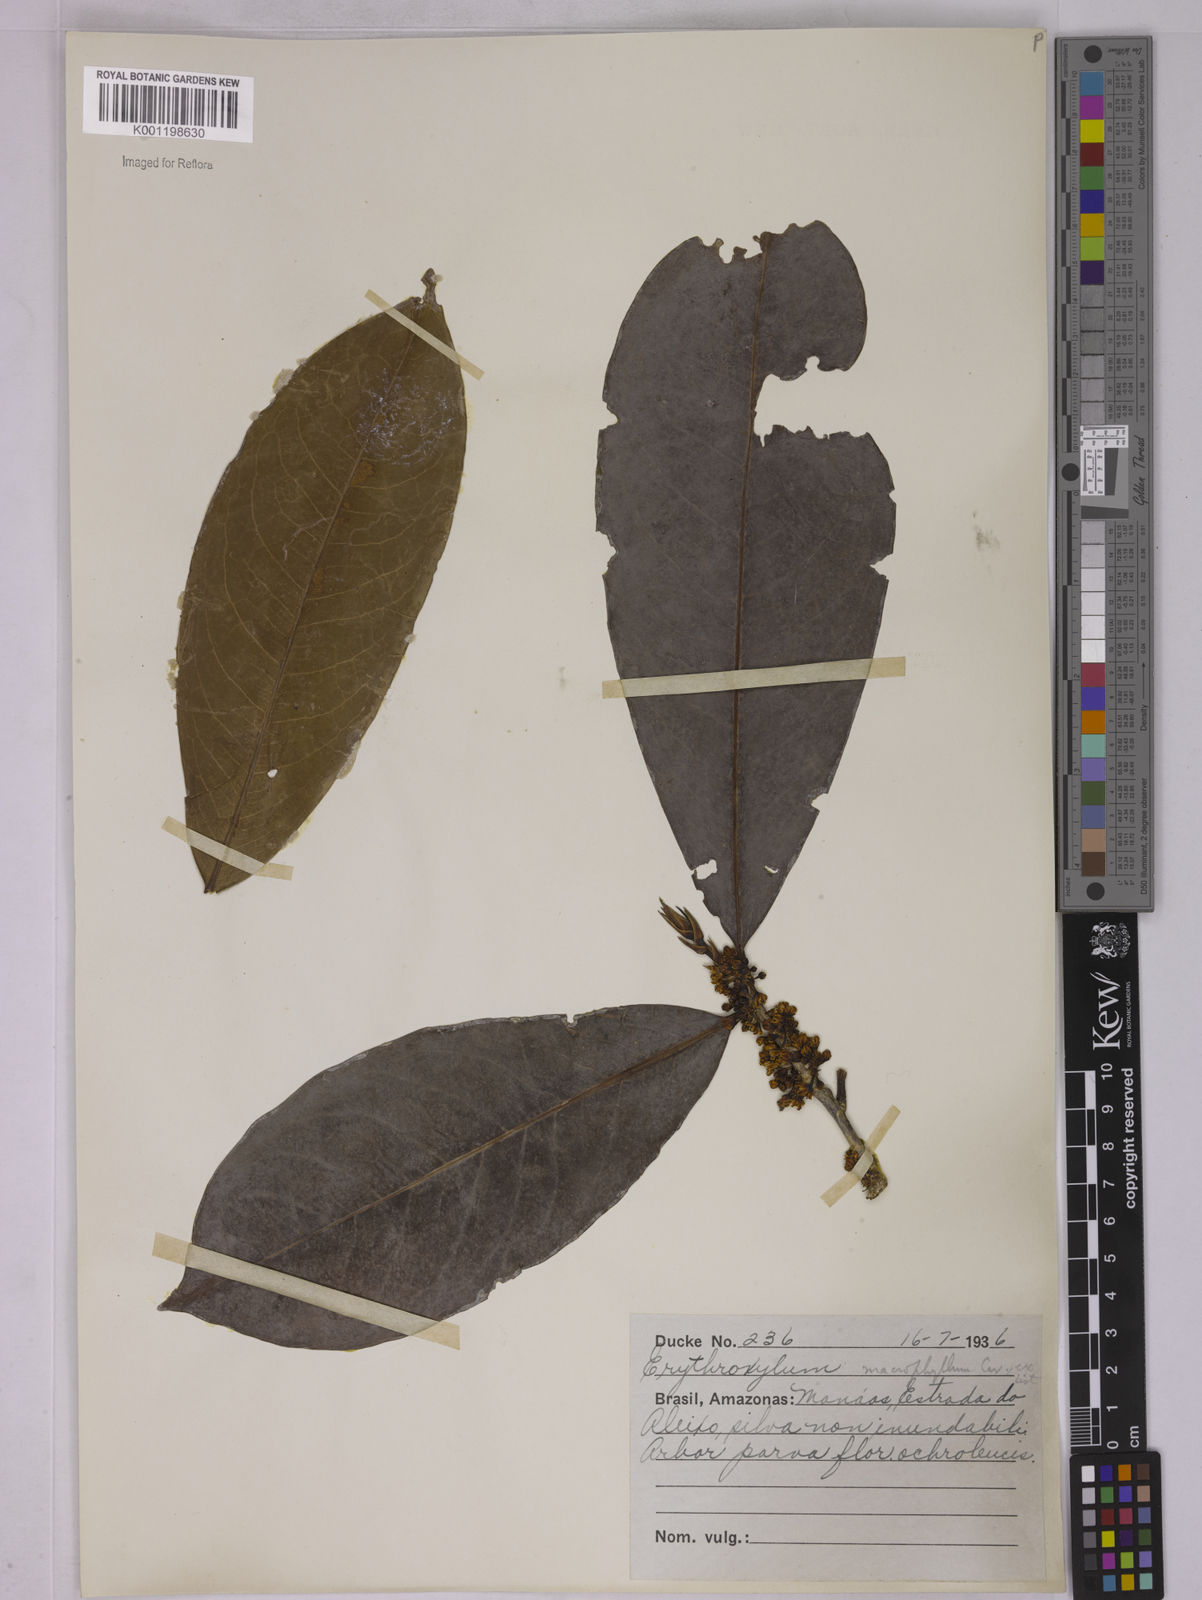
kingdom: Plantae
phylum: Tracheophyta
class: Magnoliopsida
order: Malpighiales
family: Erythroxylaceae
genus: Erythroxylum
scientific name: Erythroxylum macrophyllum
